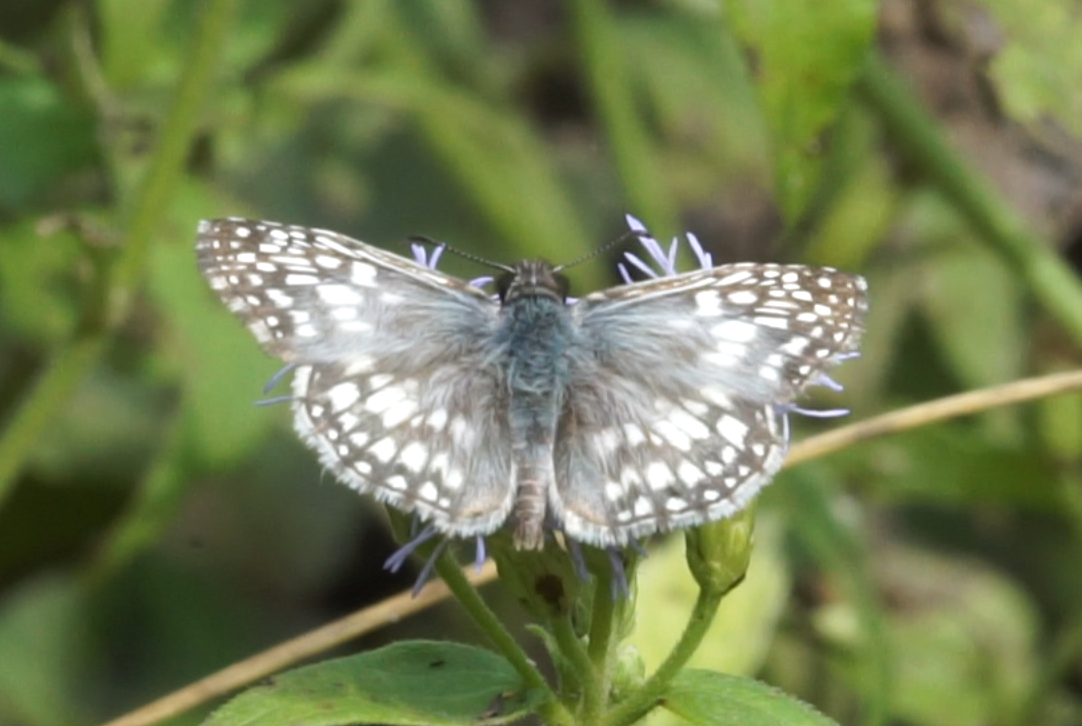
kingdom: Animalia
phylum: Arthropoda
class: Insecta
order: Lepidoptera
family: Hesperiidae
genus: Pyrgus
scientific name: Pyrgus oileus
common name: Tropical Checkered-Skipper
